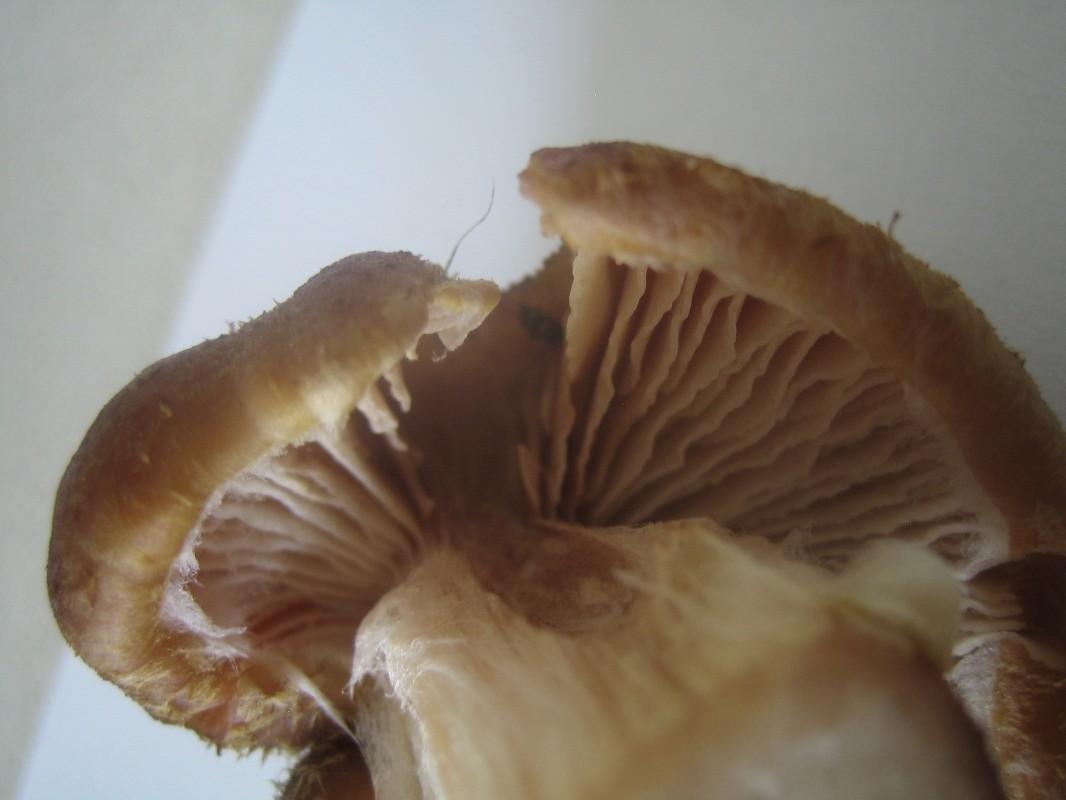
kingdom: Fungi
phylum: Basidiomycota
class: Agaricomycetes
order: Agaricales
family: Physalacriaceae
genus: Armillaria
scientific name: Armillaria lutea
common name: køllestokket honningsvamp
